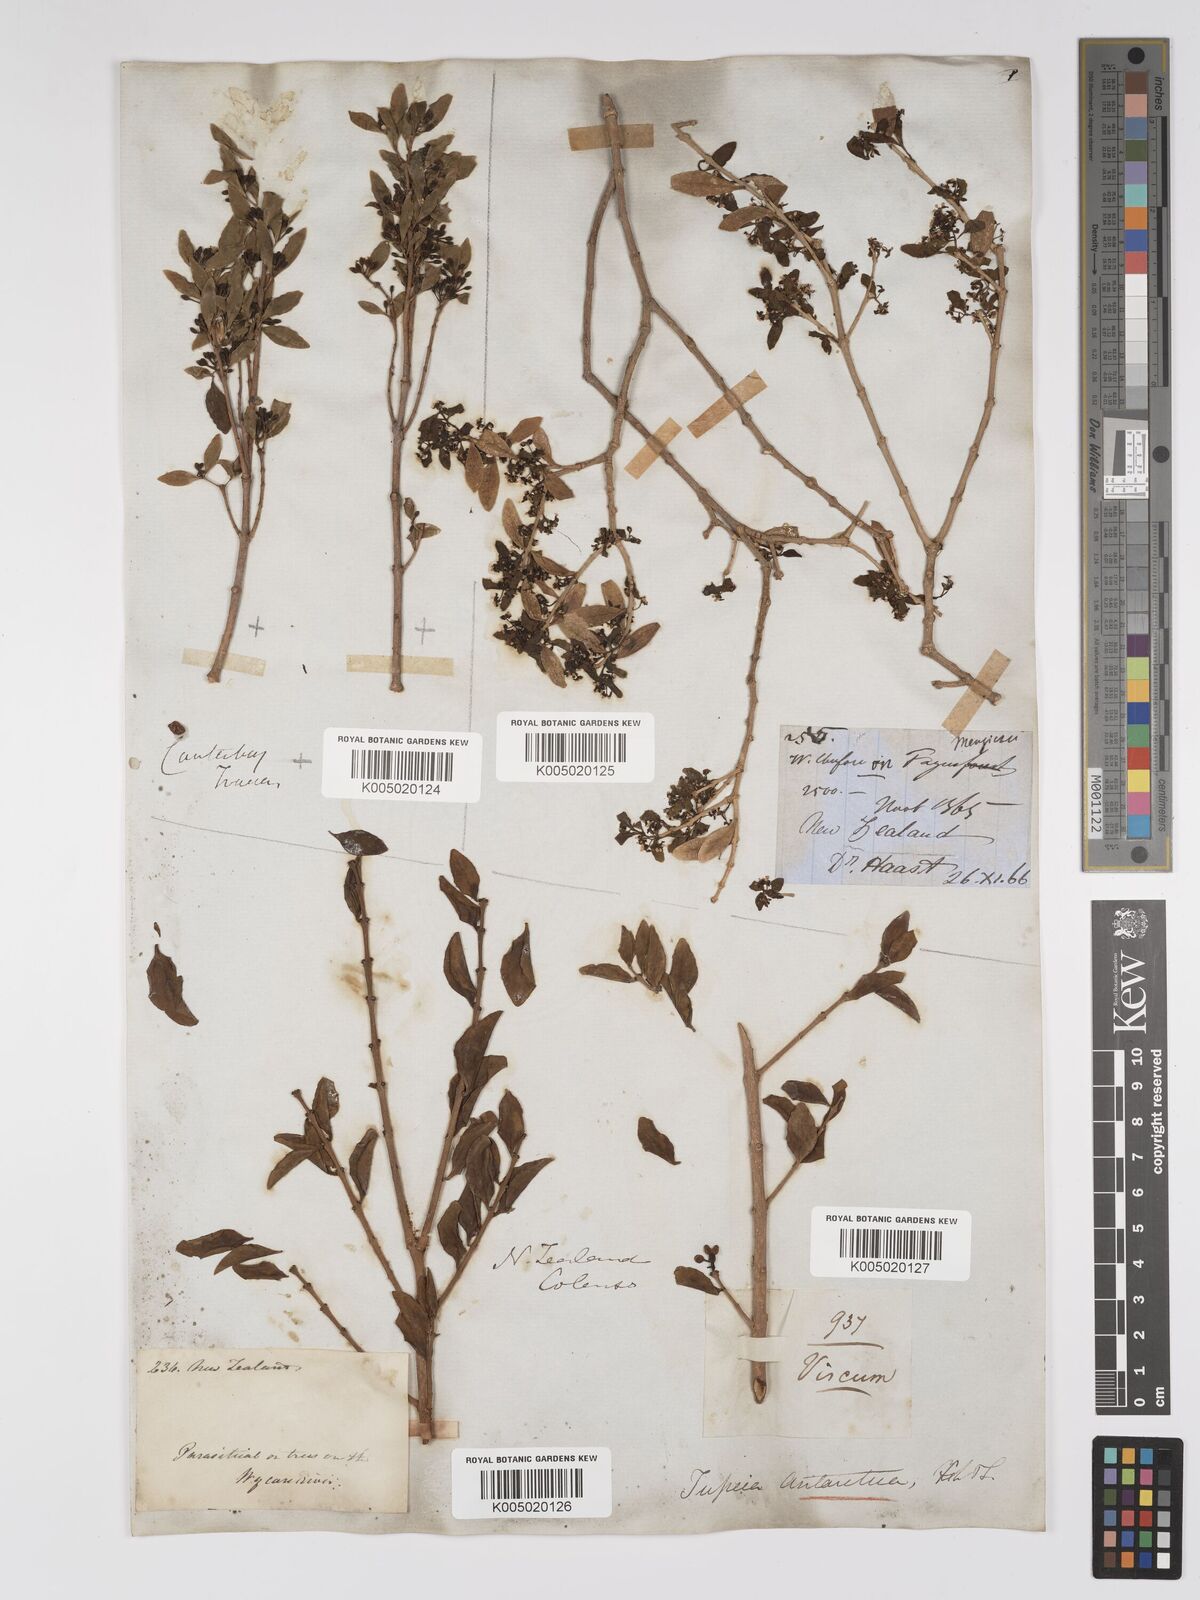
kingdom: Plantae
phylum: Tracheophyta
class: Magnoliopsida
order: Santalales
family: Loranthaceae
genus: Tupeia
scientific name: Tupeia antarctica
